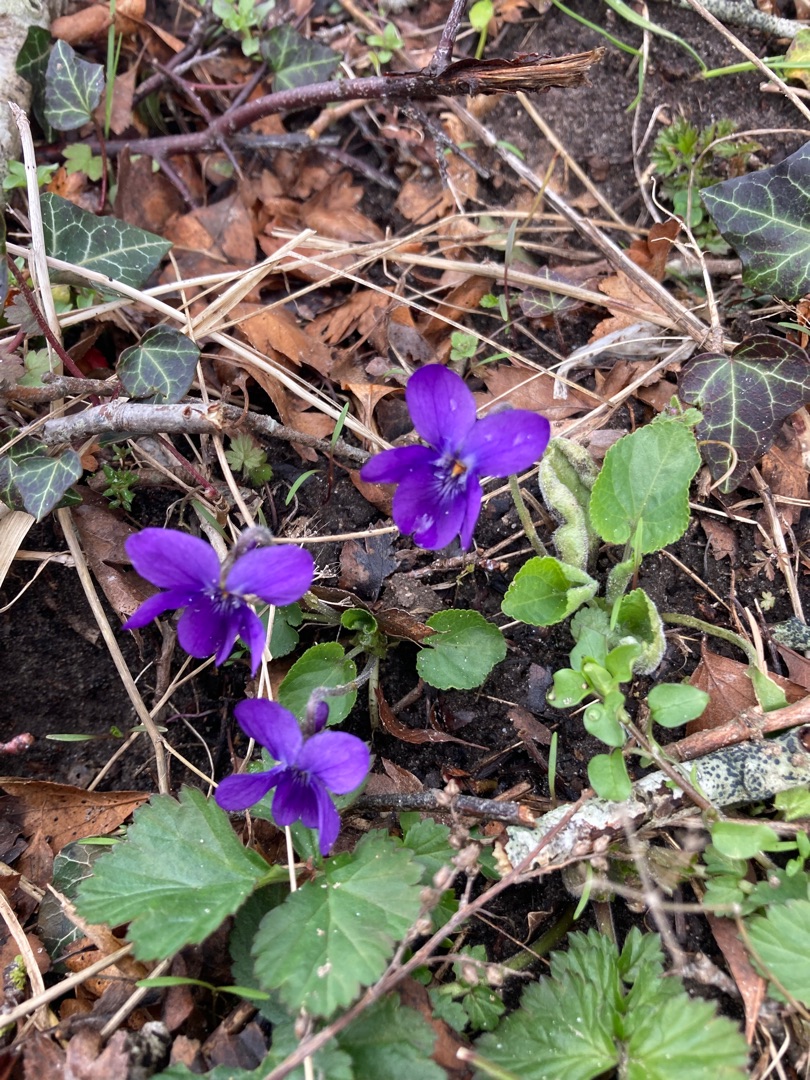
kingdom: Plantae
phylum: Tracheophyta
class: Magnoliopsida
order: Malpighiales
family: Violaceae
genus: Viola
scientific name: Viola odorata
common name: Marts-viol
